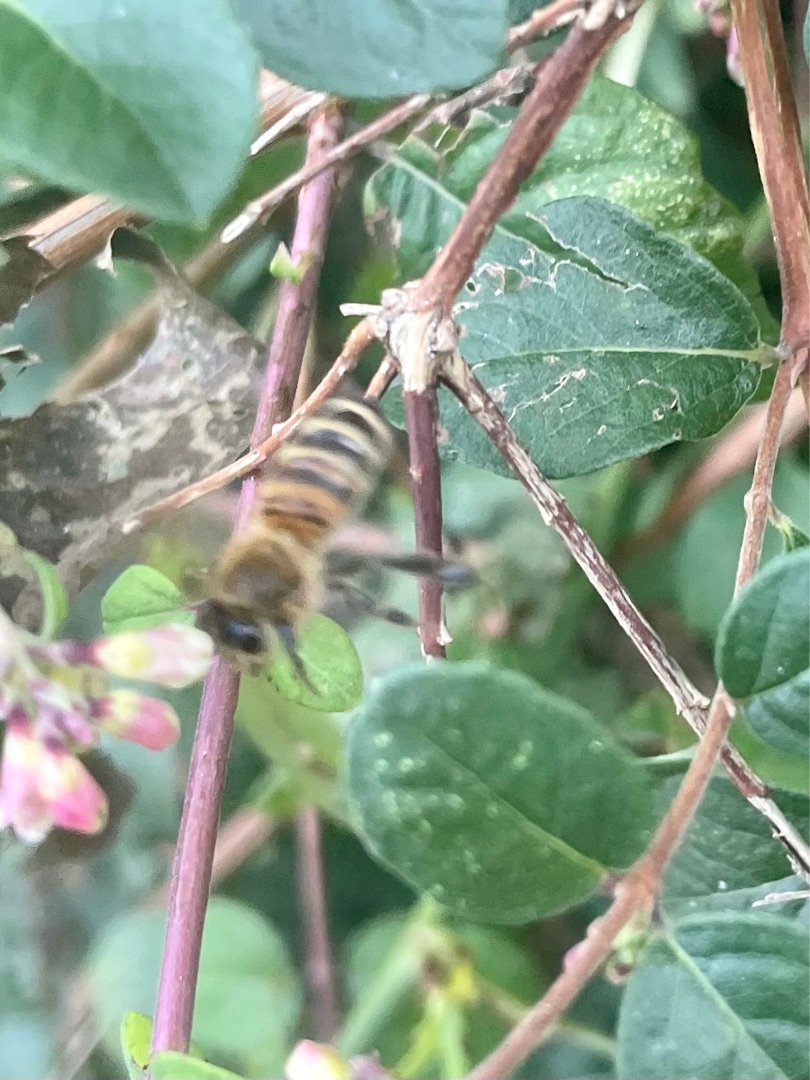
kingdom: Animalia
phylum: Arthropoda
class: Insecta
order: Hymenoptera
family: Apidae
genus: Apis
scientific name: Apis mellifera
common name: Honningbi
